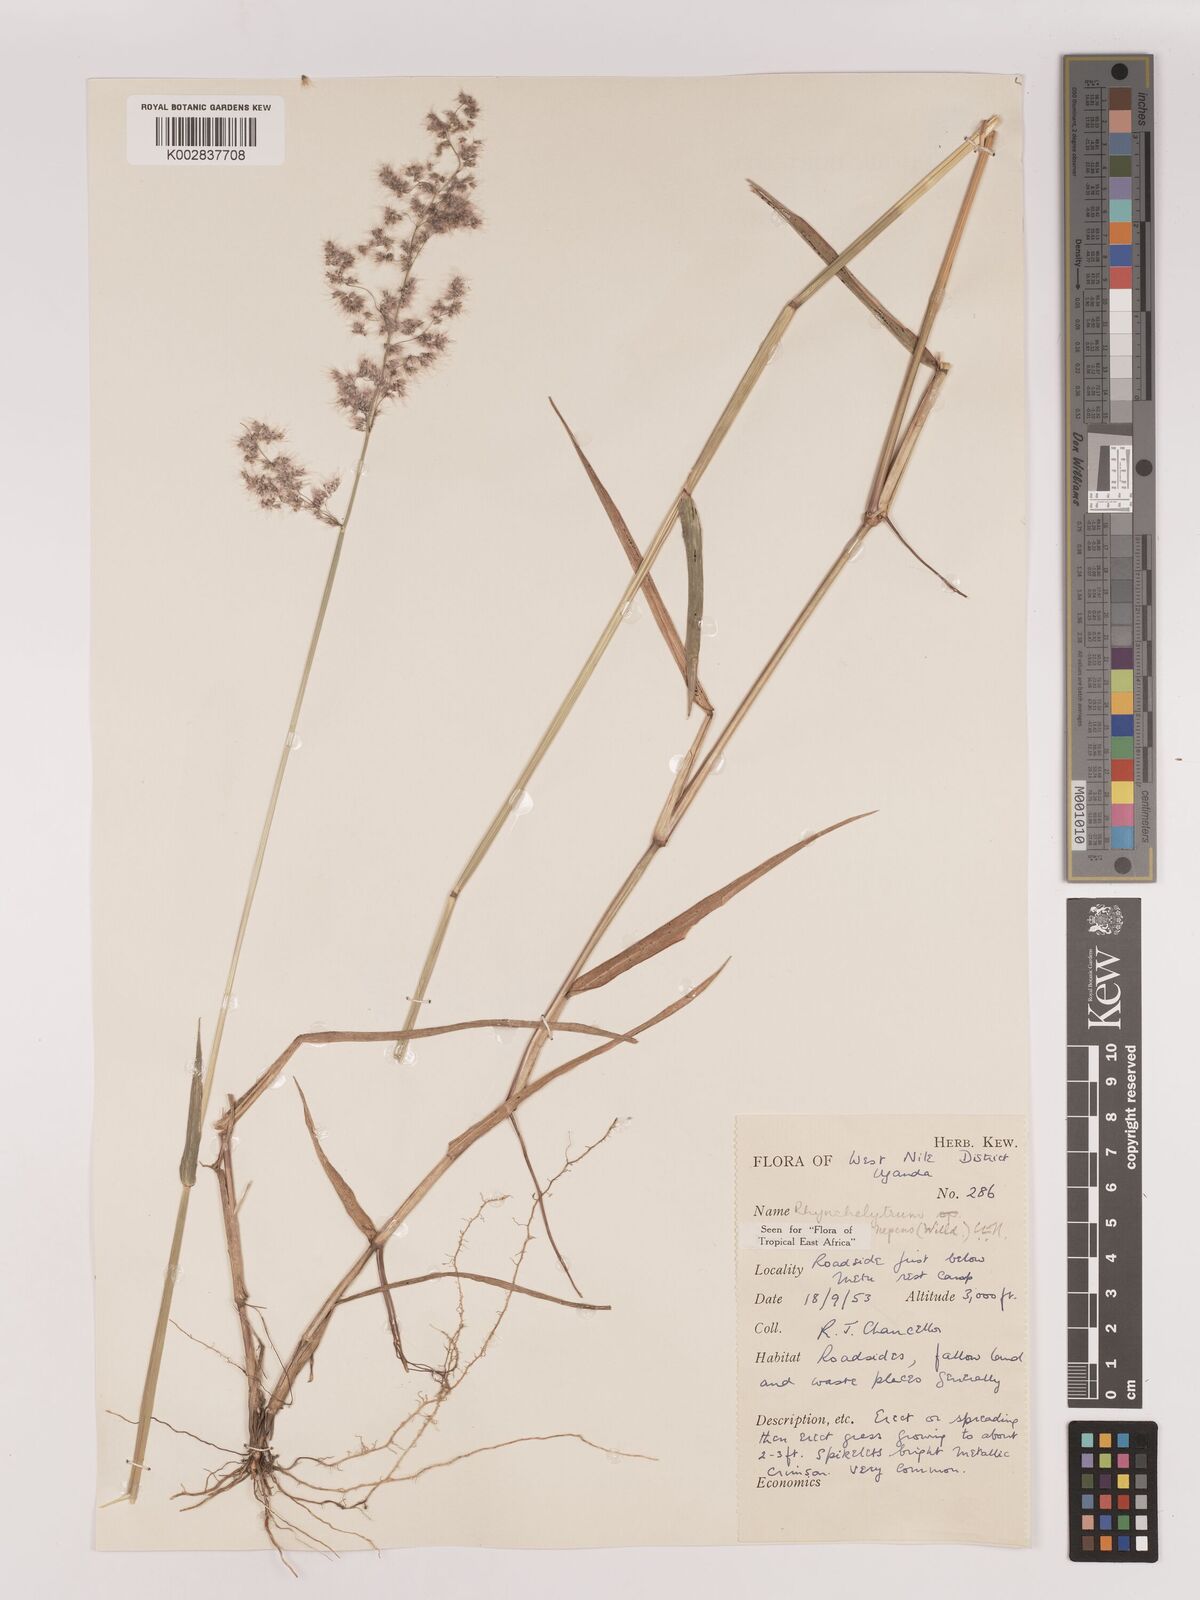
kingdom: Plantae
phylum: Tracheophyta
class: Liliopsida
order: Poales
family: Poaceae
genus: Melinis
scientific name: Melinis repens
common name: Rose natal grass
